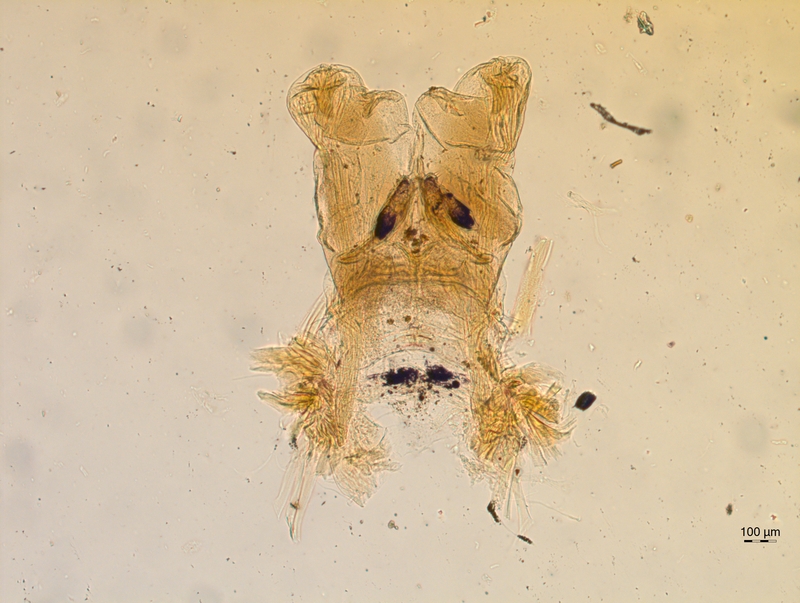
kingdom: Animalia
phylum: Arthropoda
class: Diplopoda
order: Chordeumatida
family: Chordeumatidae
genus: Chordeuma
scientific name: Chordeuma sylvestre
